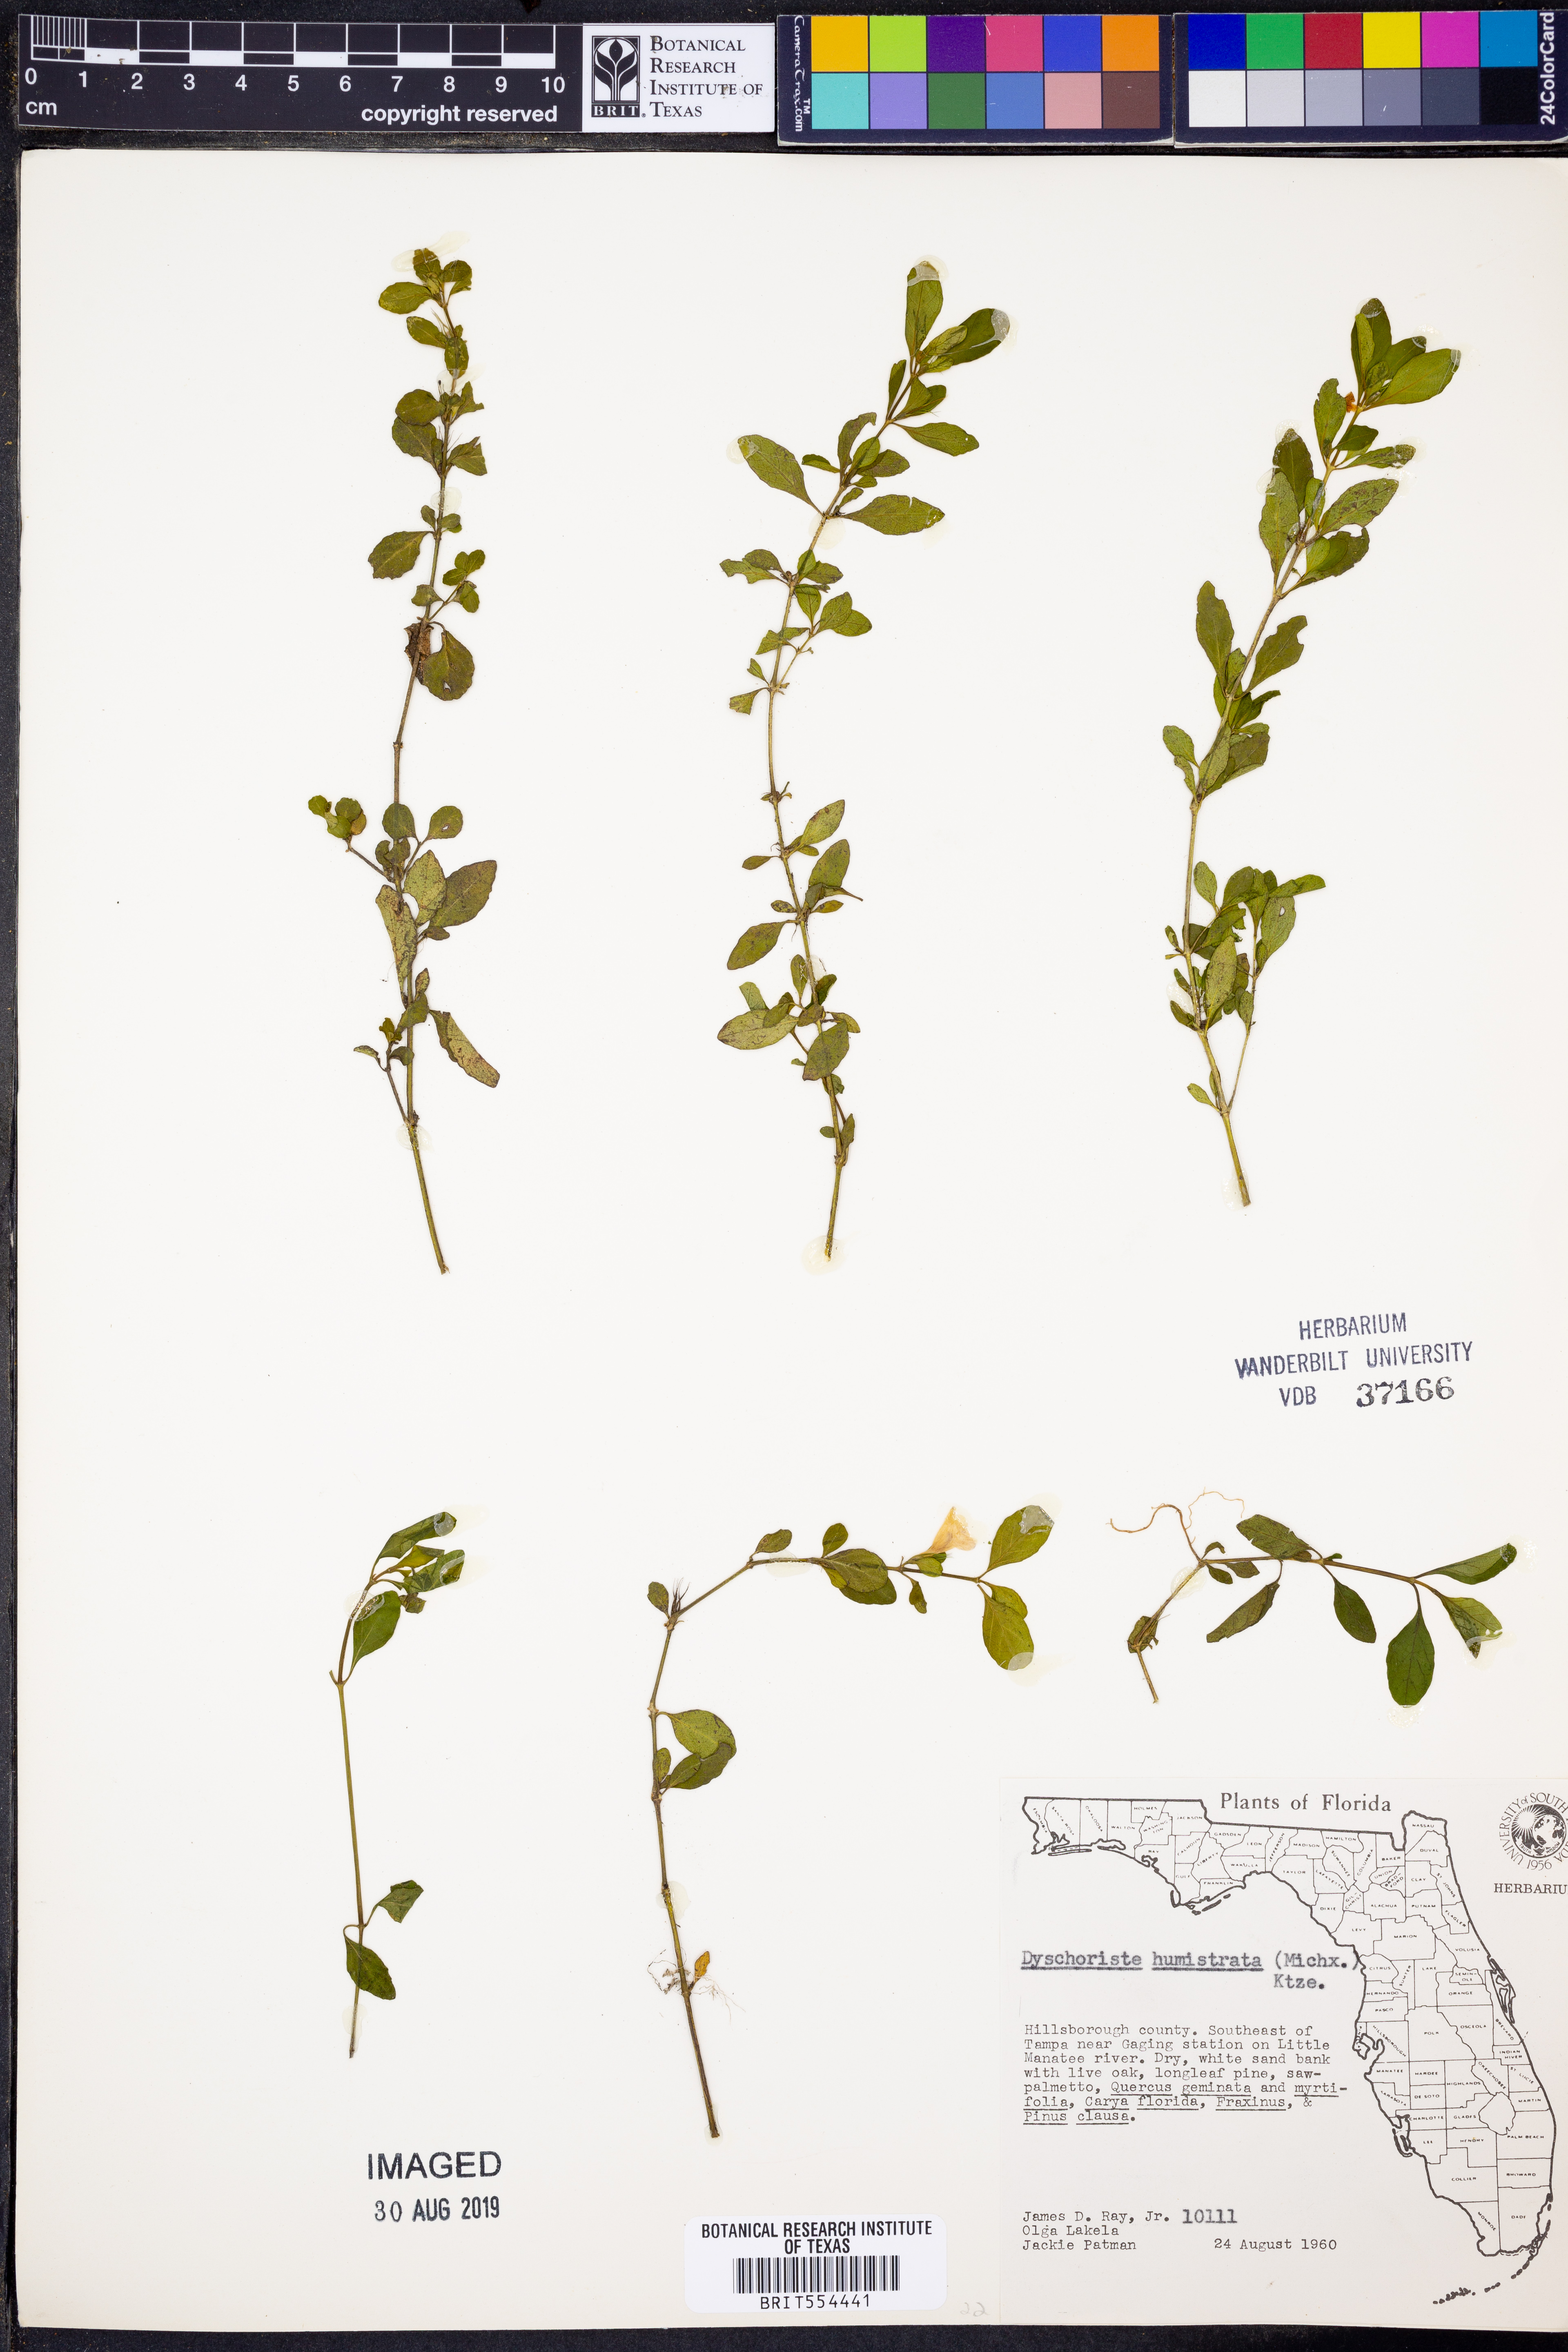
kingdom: Plantae
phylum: Tracheophyta
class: Magnoliopsida
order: Lamiales
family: Acanthaceae
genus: Dyschoriste
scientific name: Dyschoriste humistrata
